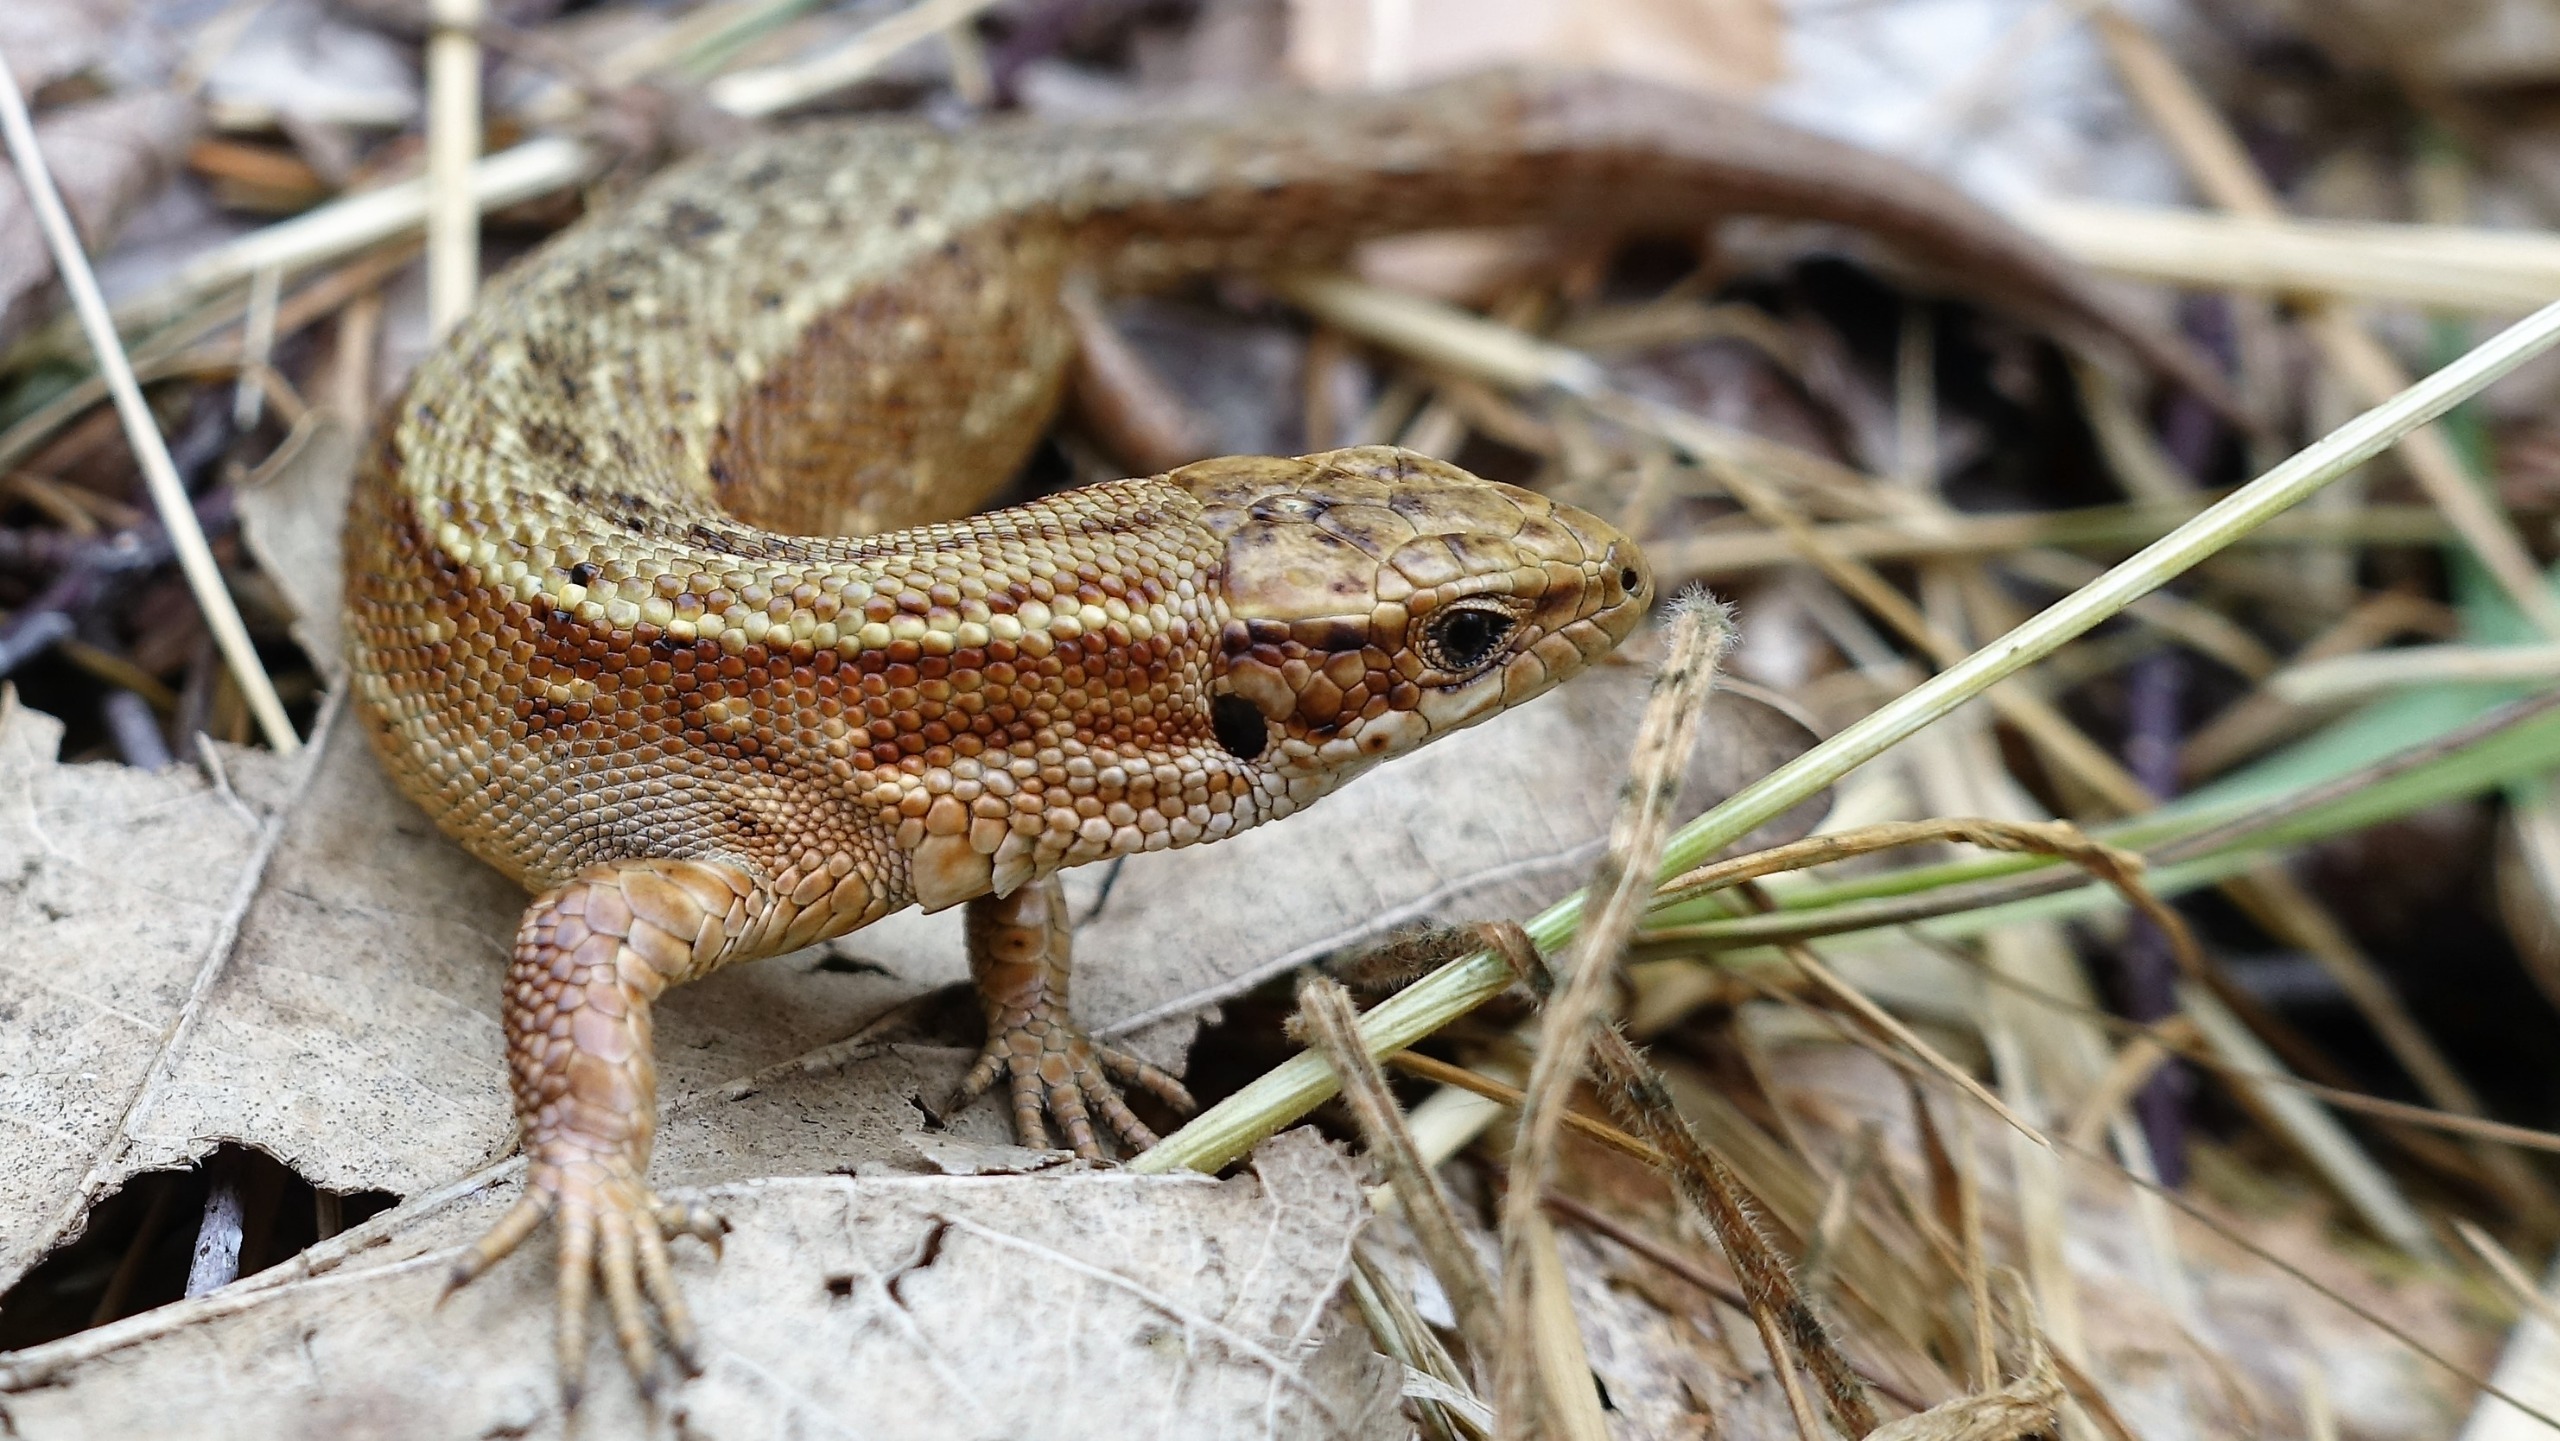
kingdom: Animalia
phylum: Chordata
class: Squamata
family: Lacertidae
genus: Zootoca
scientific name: Zootoca vivipara
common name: Skovfirben
